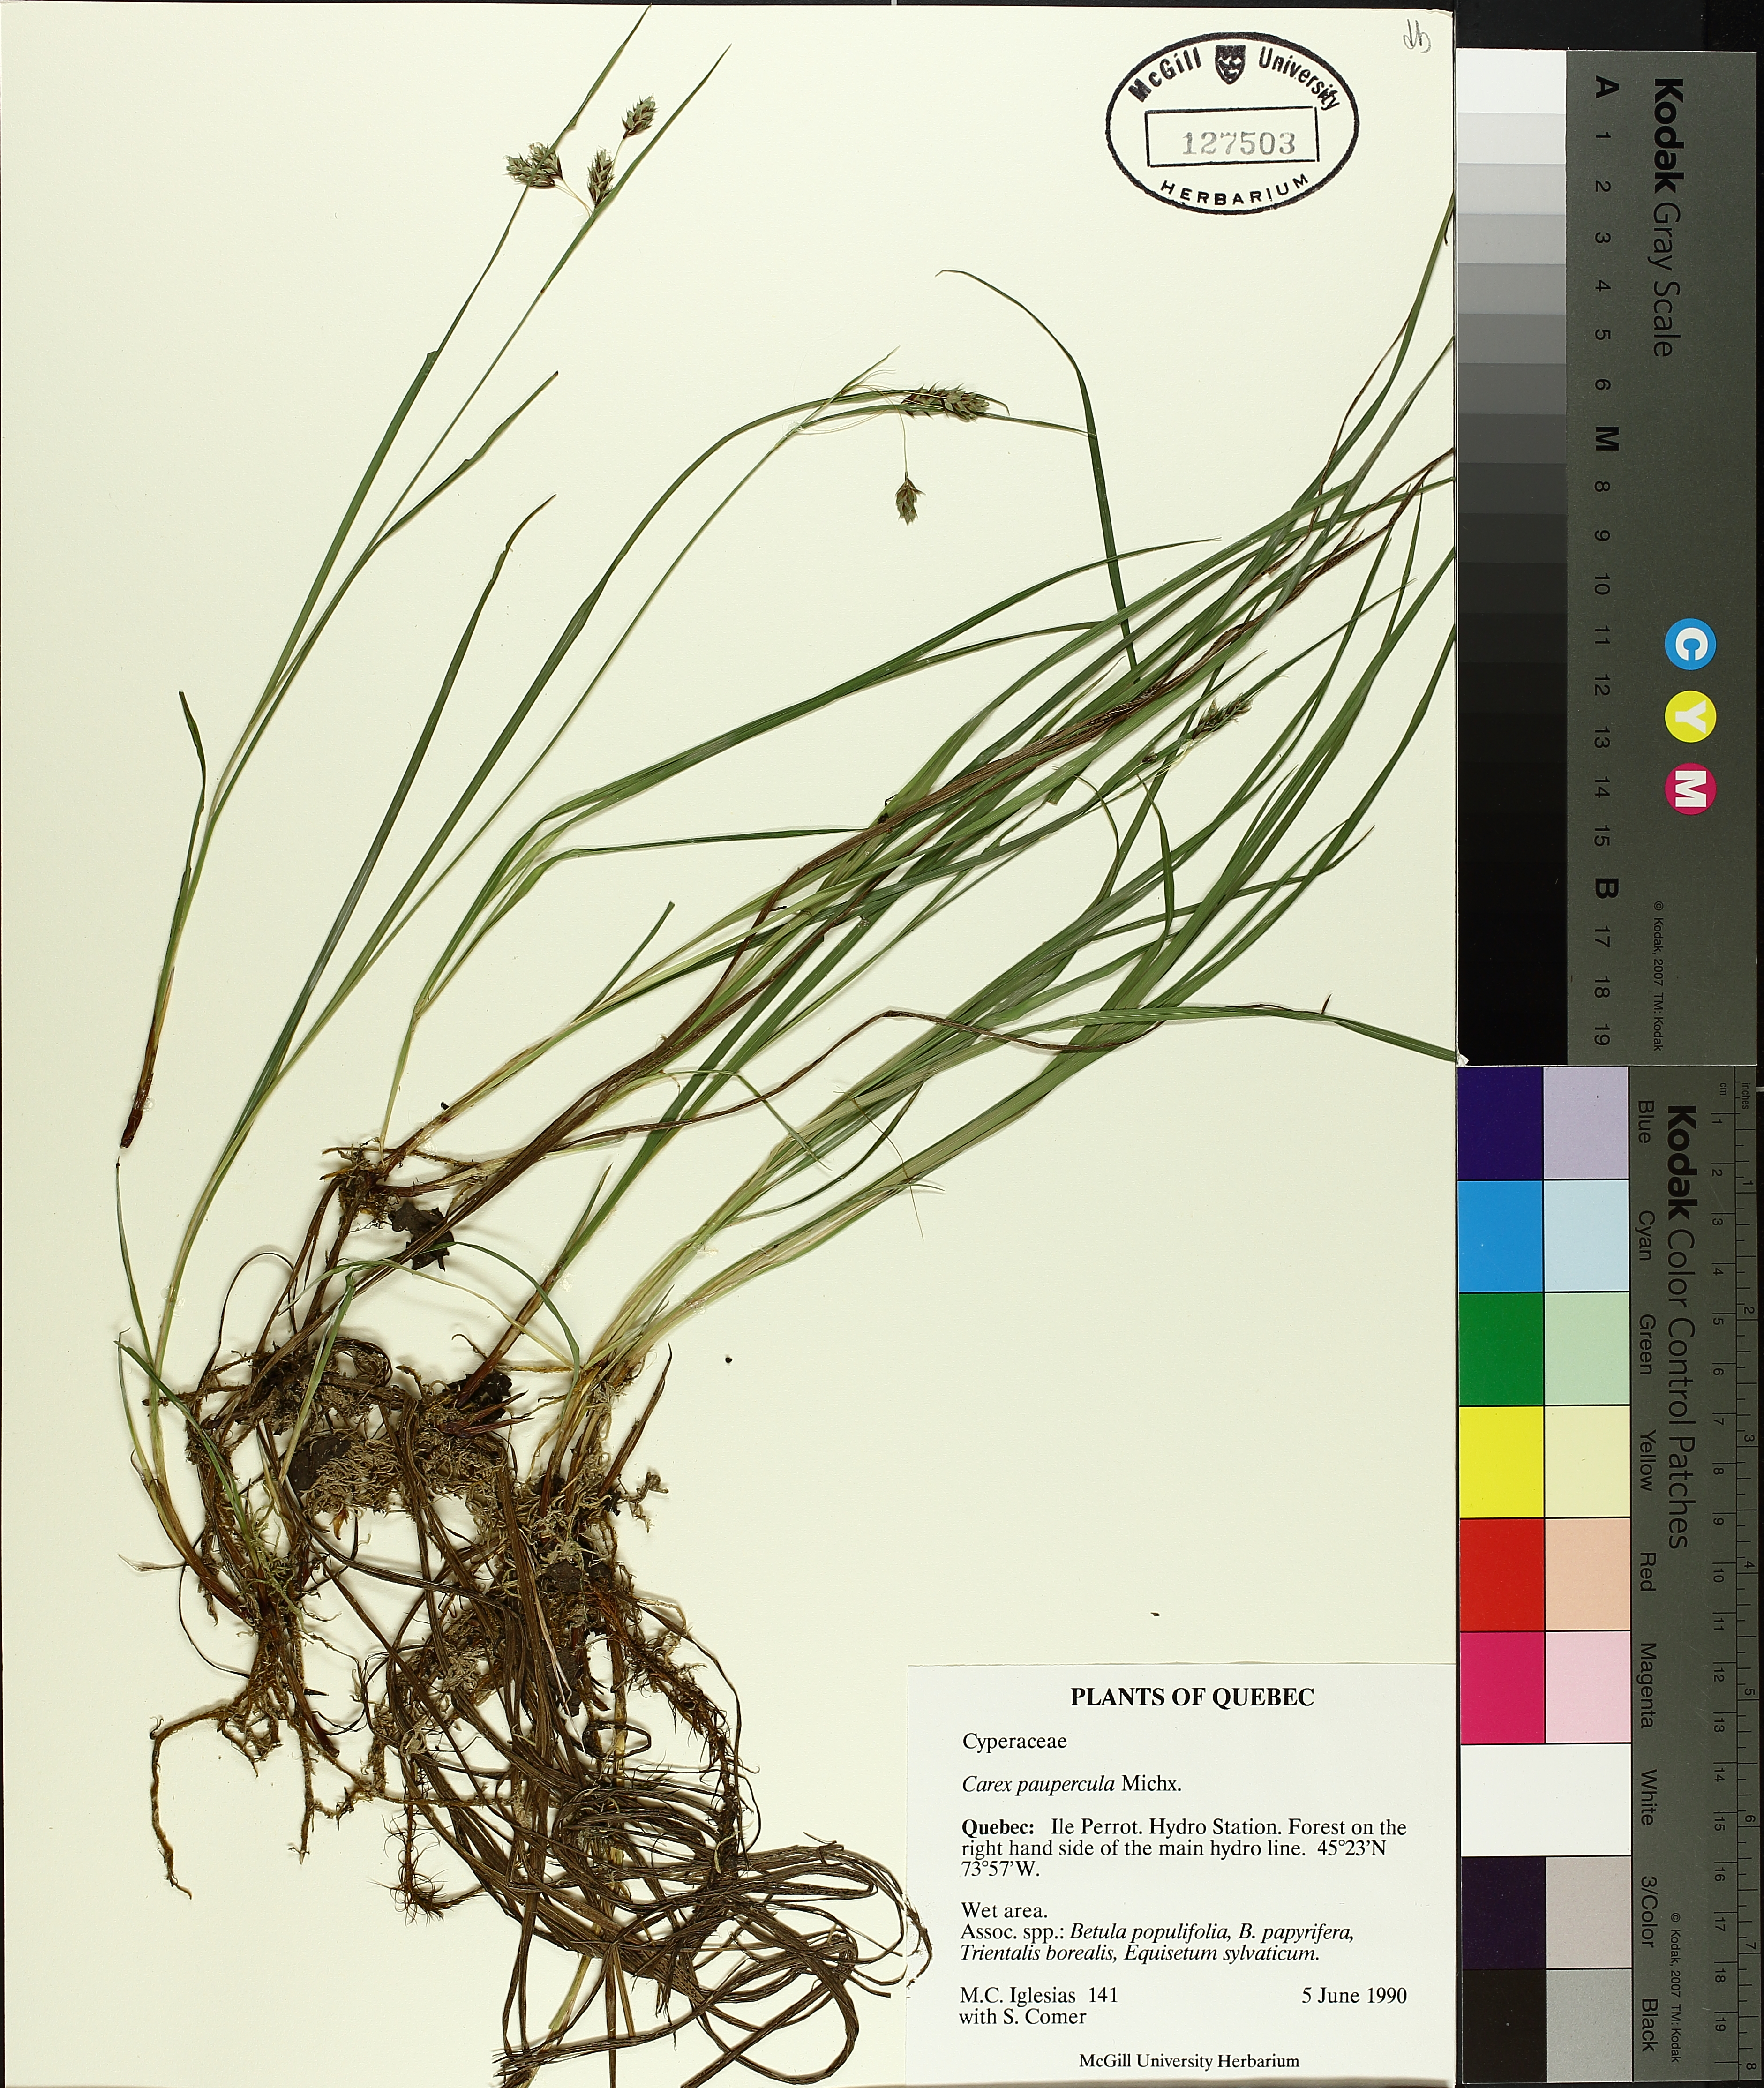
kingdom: Plantae
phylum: Tracheophyta
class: Liliopsida
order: Poales
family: Cyperaceae
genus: Carex
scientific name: Carex magellanica
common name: Bog sedge
